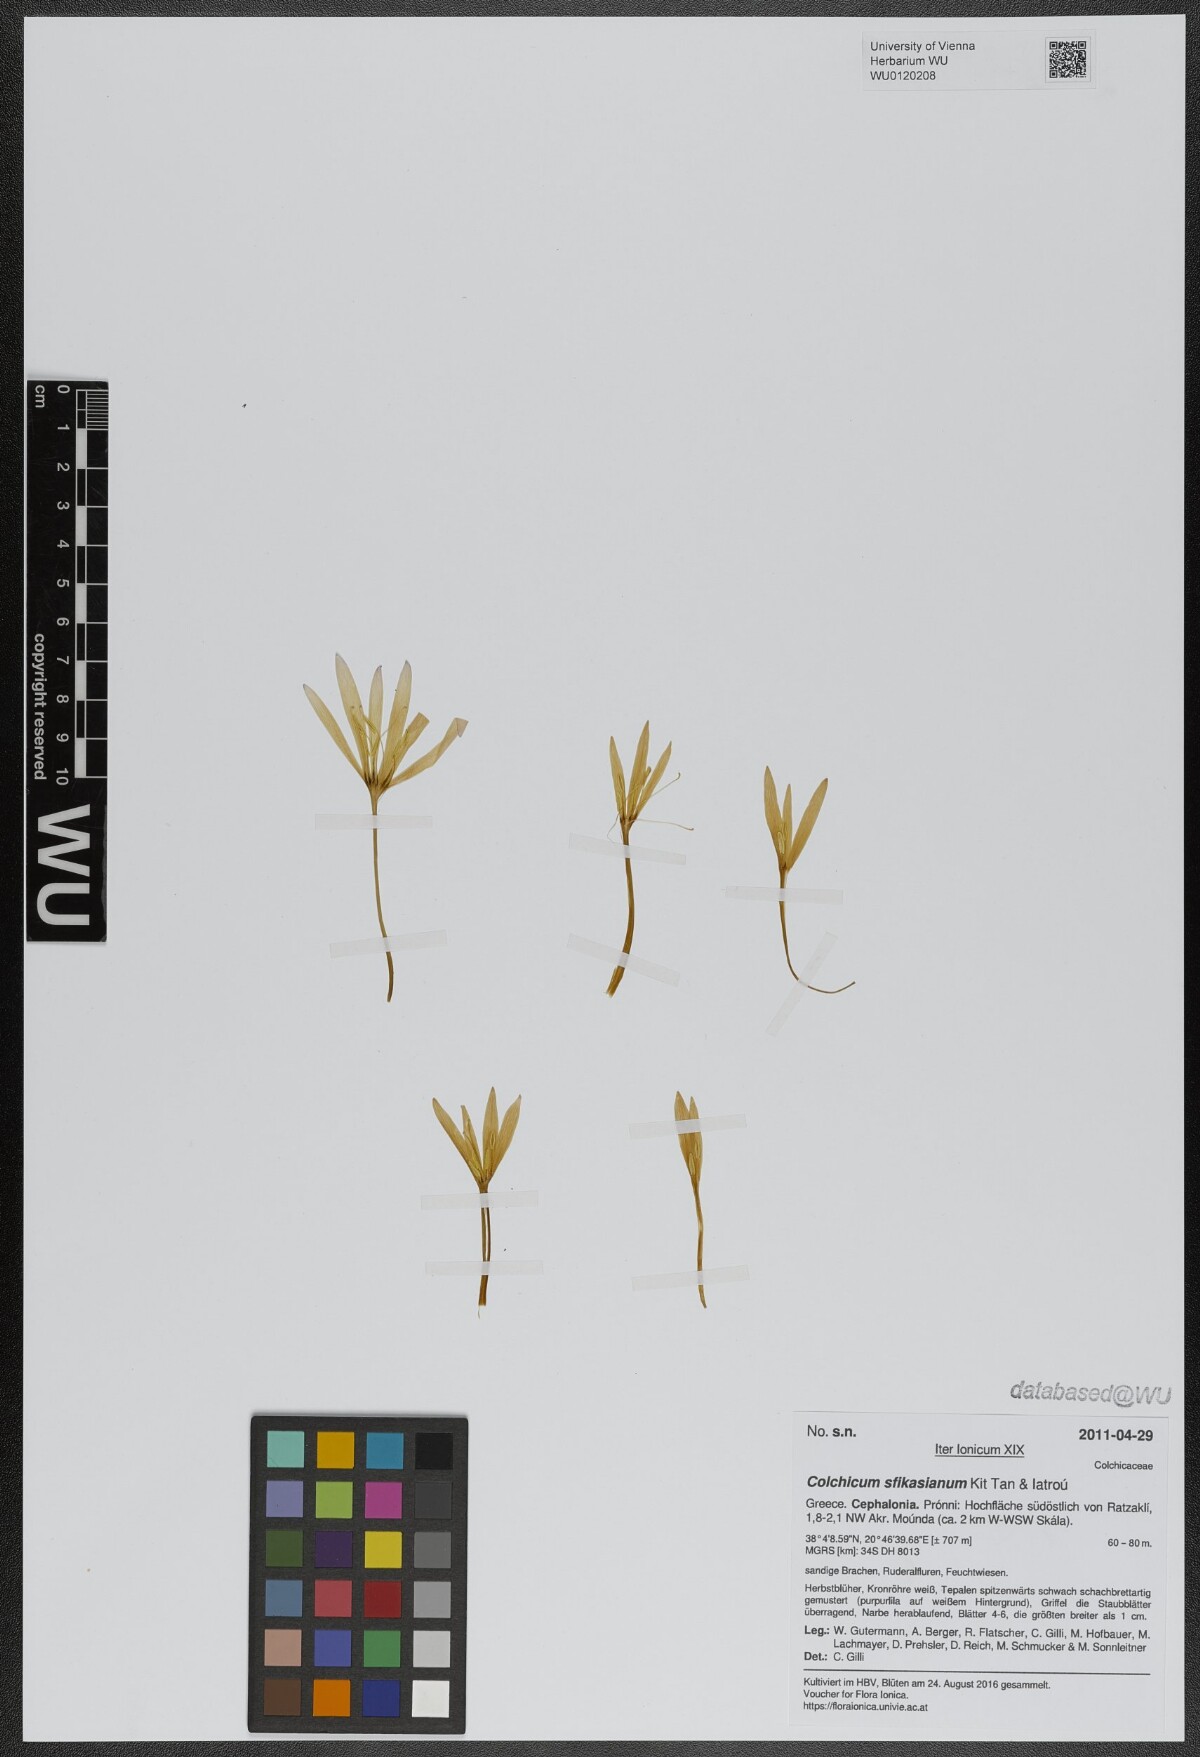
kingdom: Plantae
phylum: Tracheophyta
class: Liliopsida
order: Liliales
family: Colchicaceae
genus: Colchicum
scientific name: Colchicum sfikasianum
